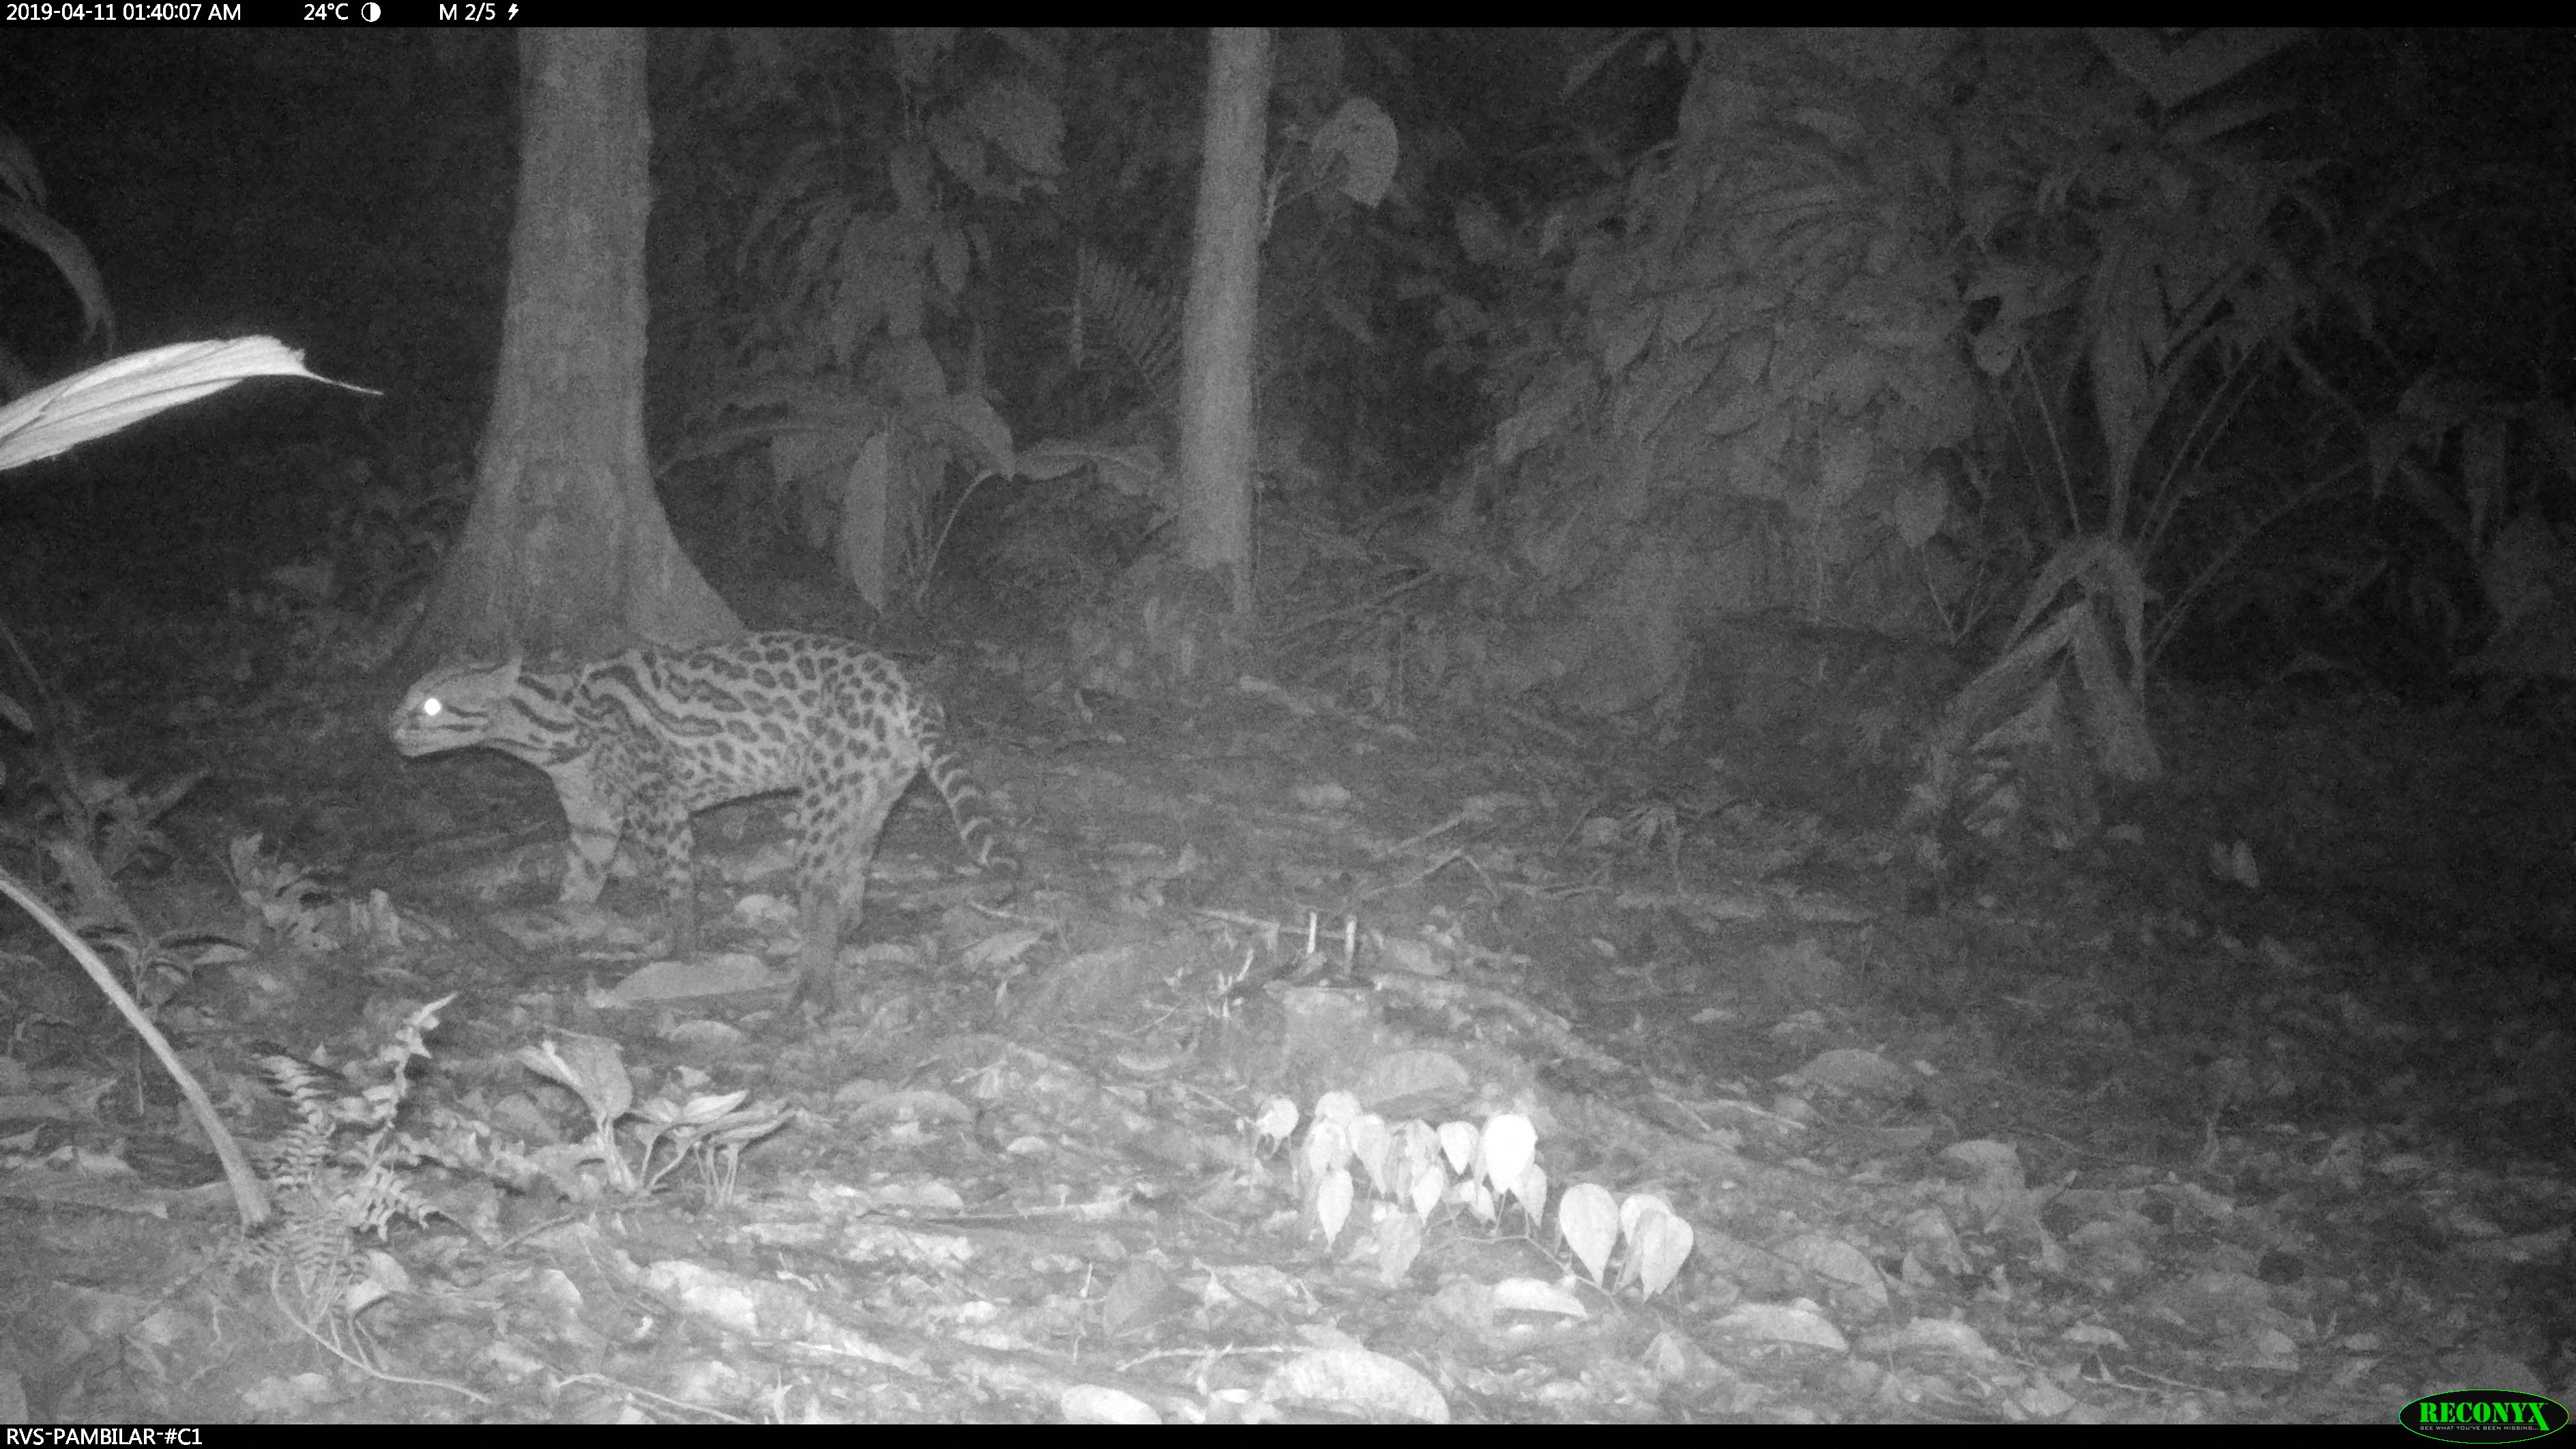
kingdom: Animalia
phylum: Chordata
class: Mammalia
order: Carnivora
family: Felidae
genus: Leopardus
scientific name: Leopardus pardalis
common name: Ocelot
